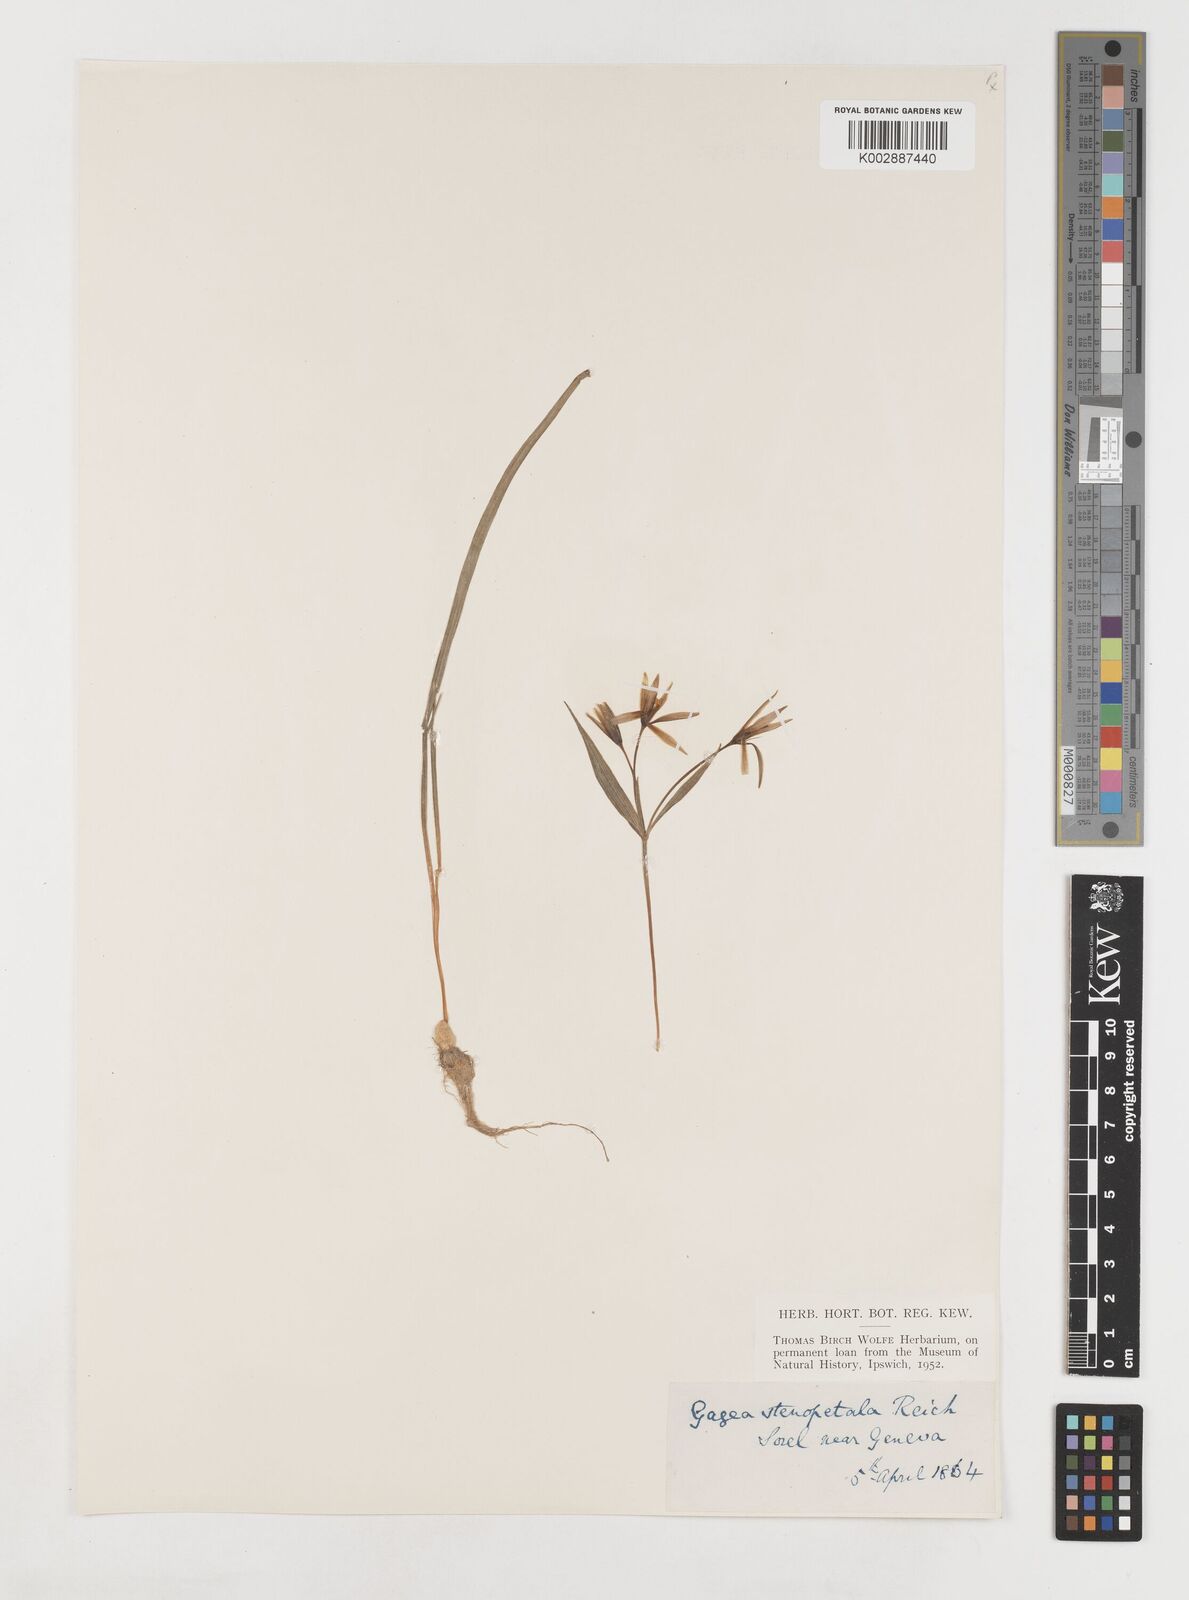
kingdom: Plantae
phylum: Tracheophyta
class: Liliopsida
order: Liliales
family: Liliaceae
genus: Gagea
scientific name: Gagea pratensis
